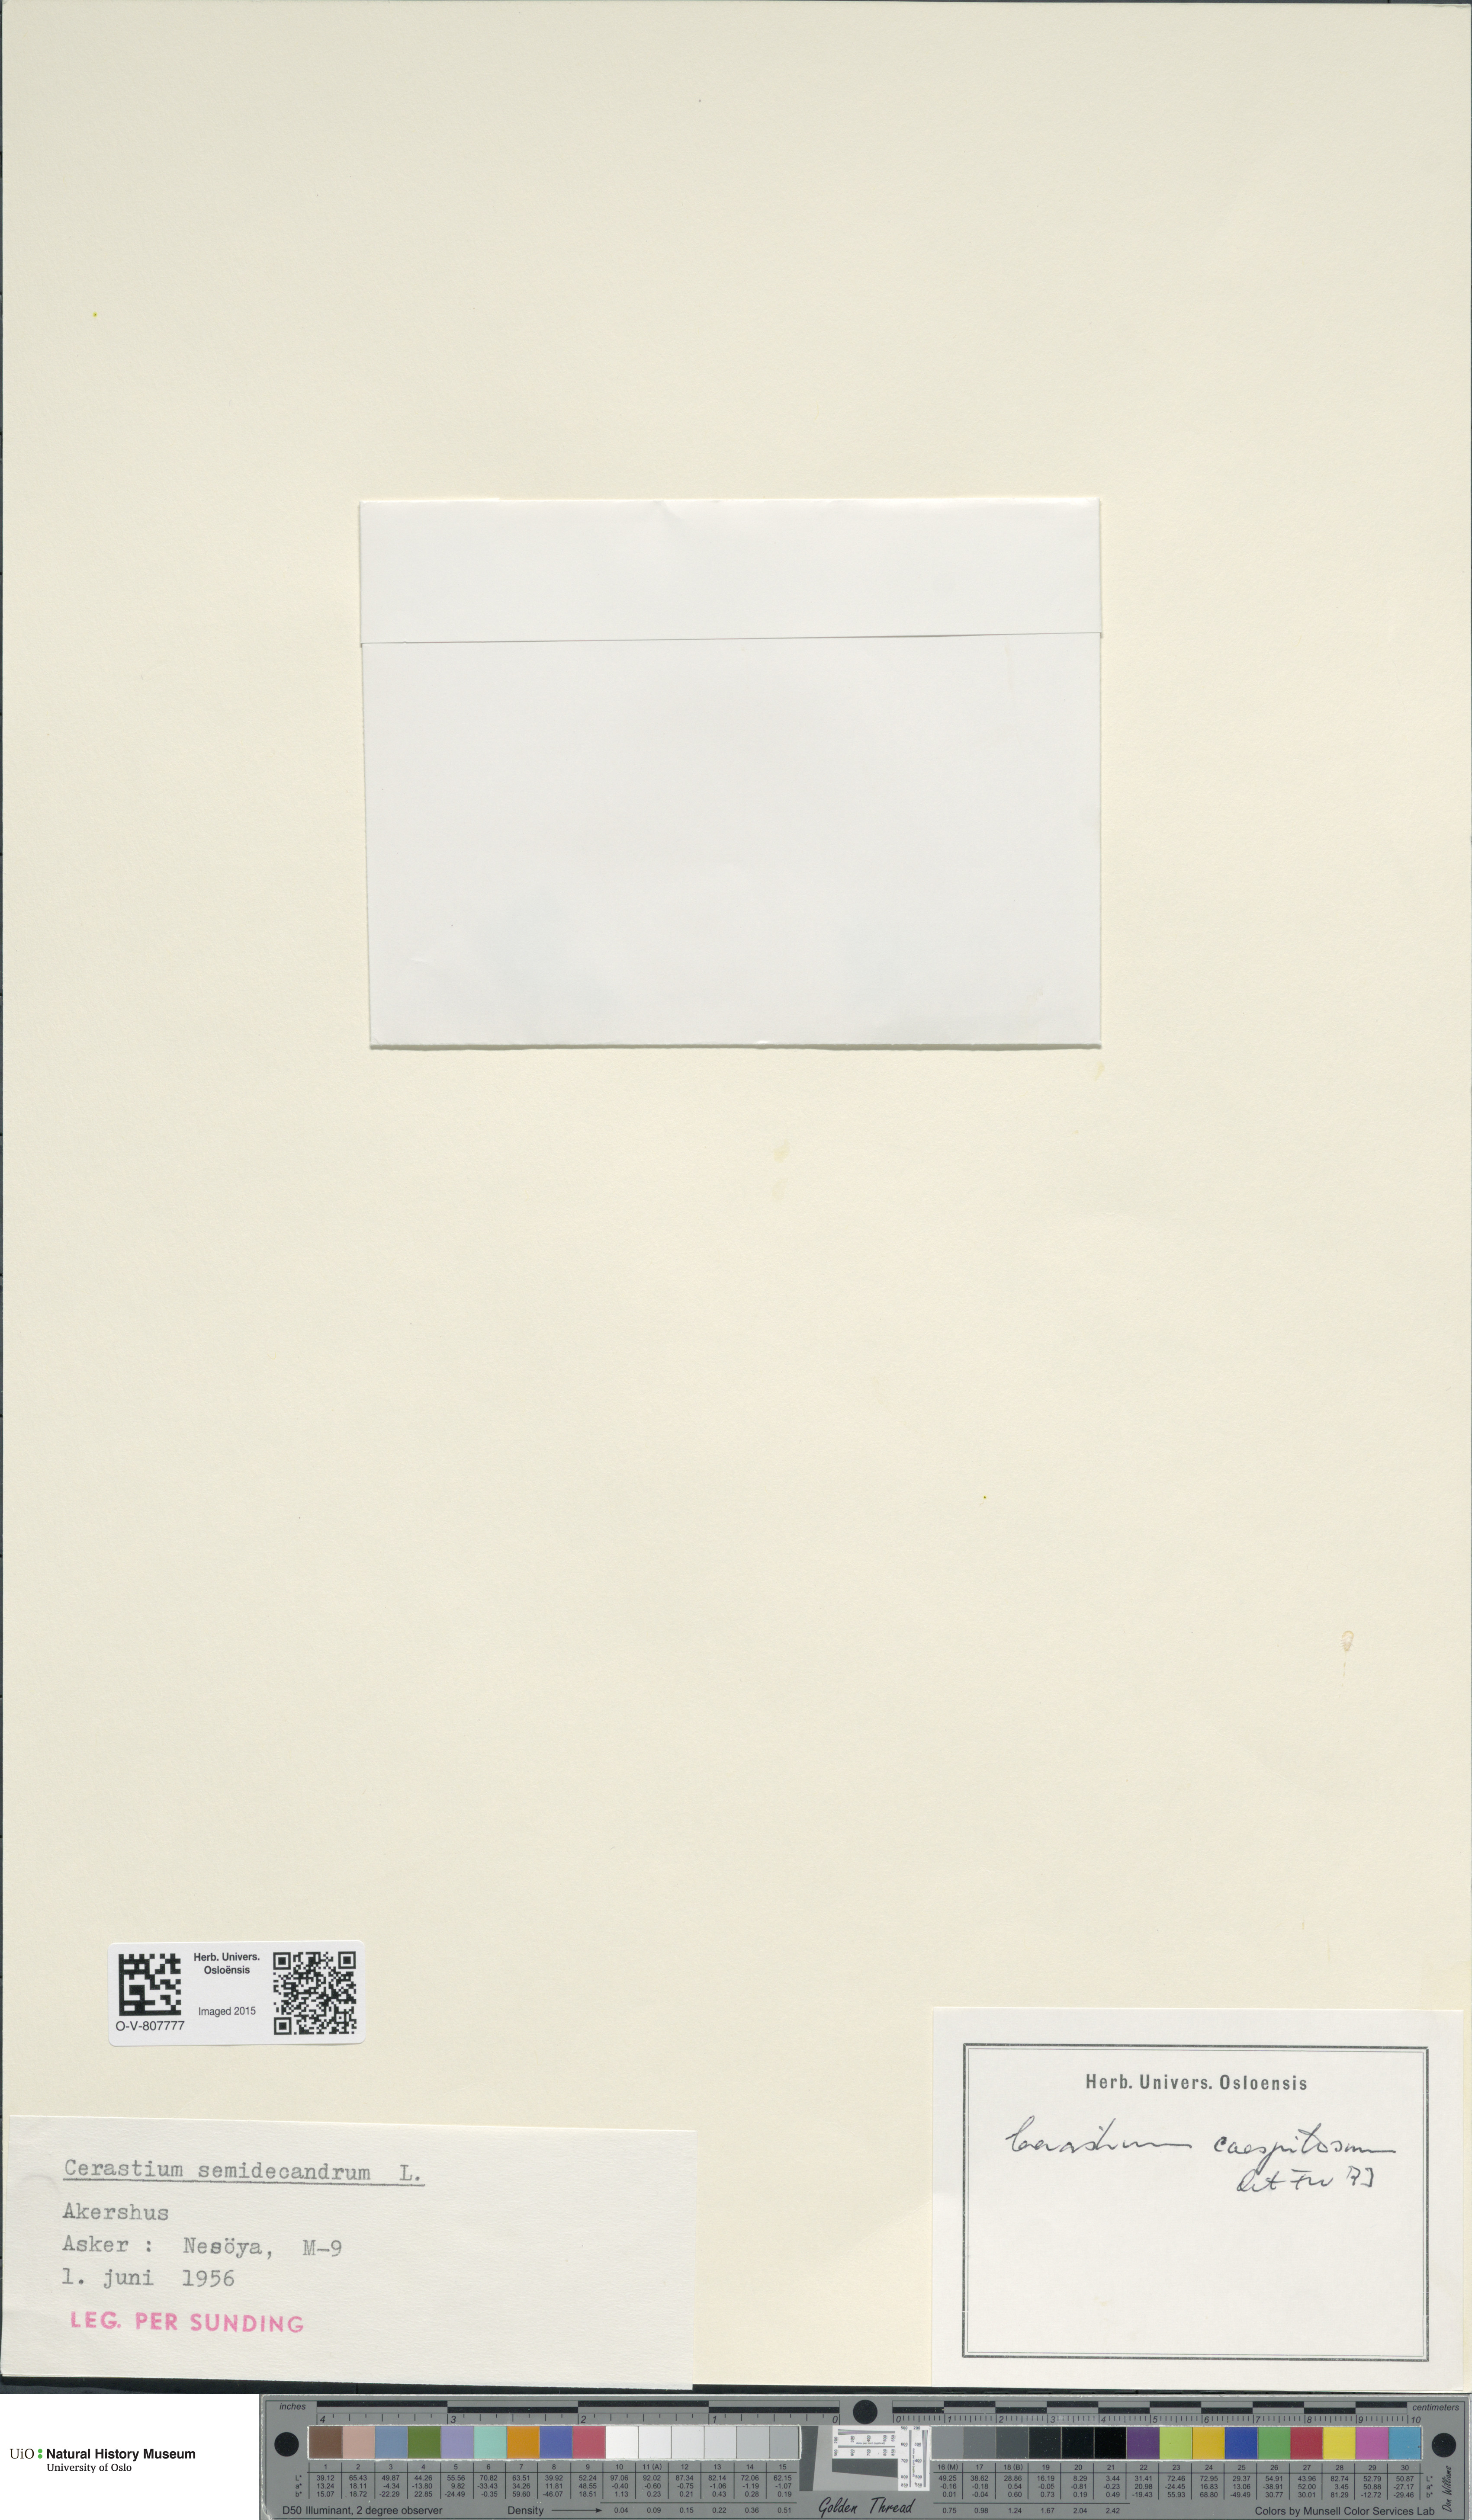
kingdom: Plantae
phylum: Tracheophyta
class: Magnoliopsida
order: Caryophyllales
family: Caryophyllaceae
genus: Cerastium
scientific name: Cerastium holosteoides
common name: Big chickweed
